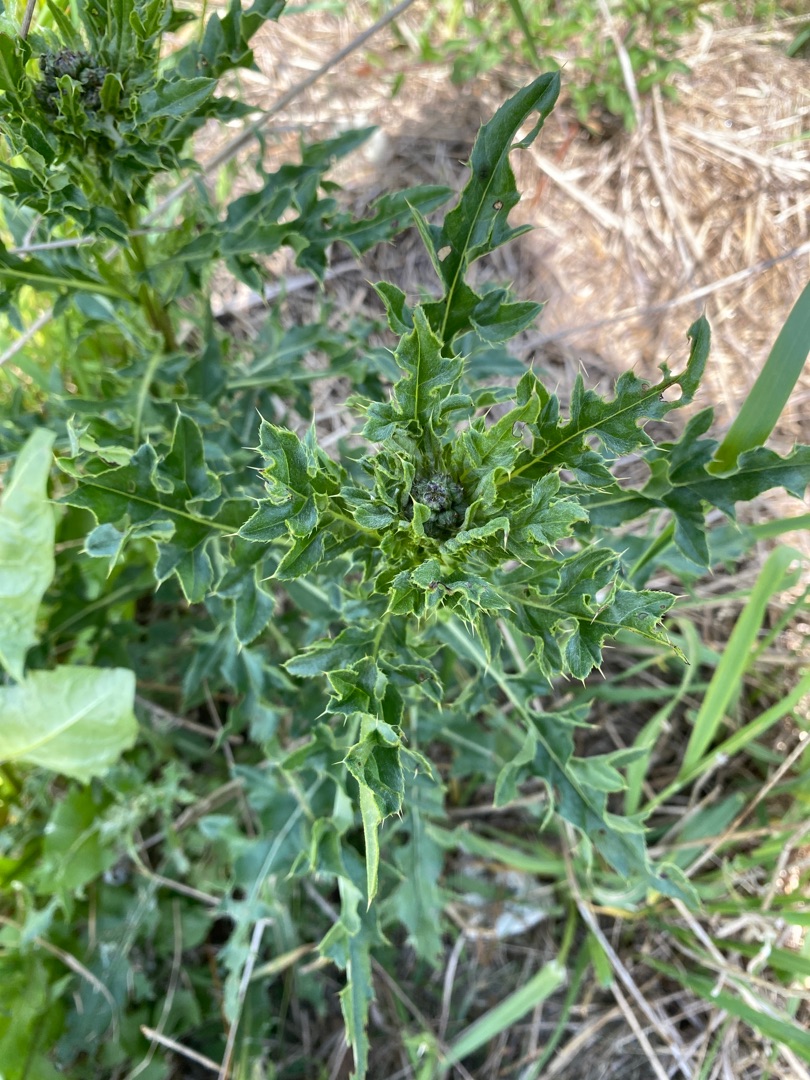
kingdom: Plantae
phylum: Tracheophyta
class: Magnoliopsida
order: Asterales
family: Asteraceae
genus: Cirsium
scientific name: Cirsium arvense
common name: Ager-tidsel
